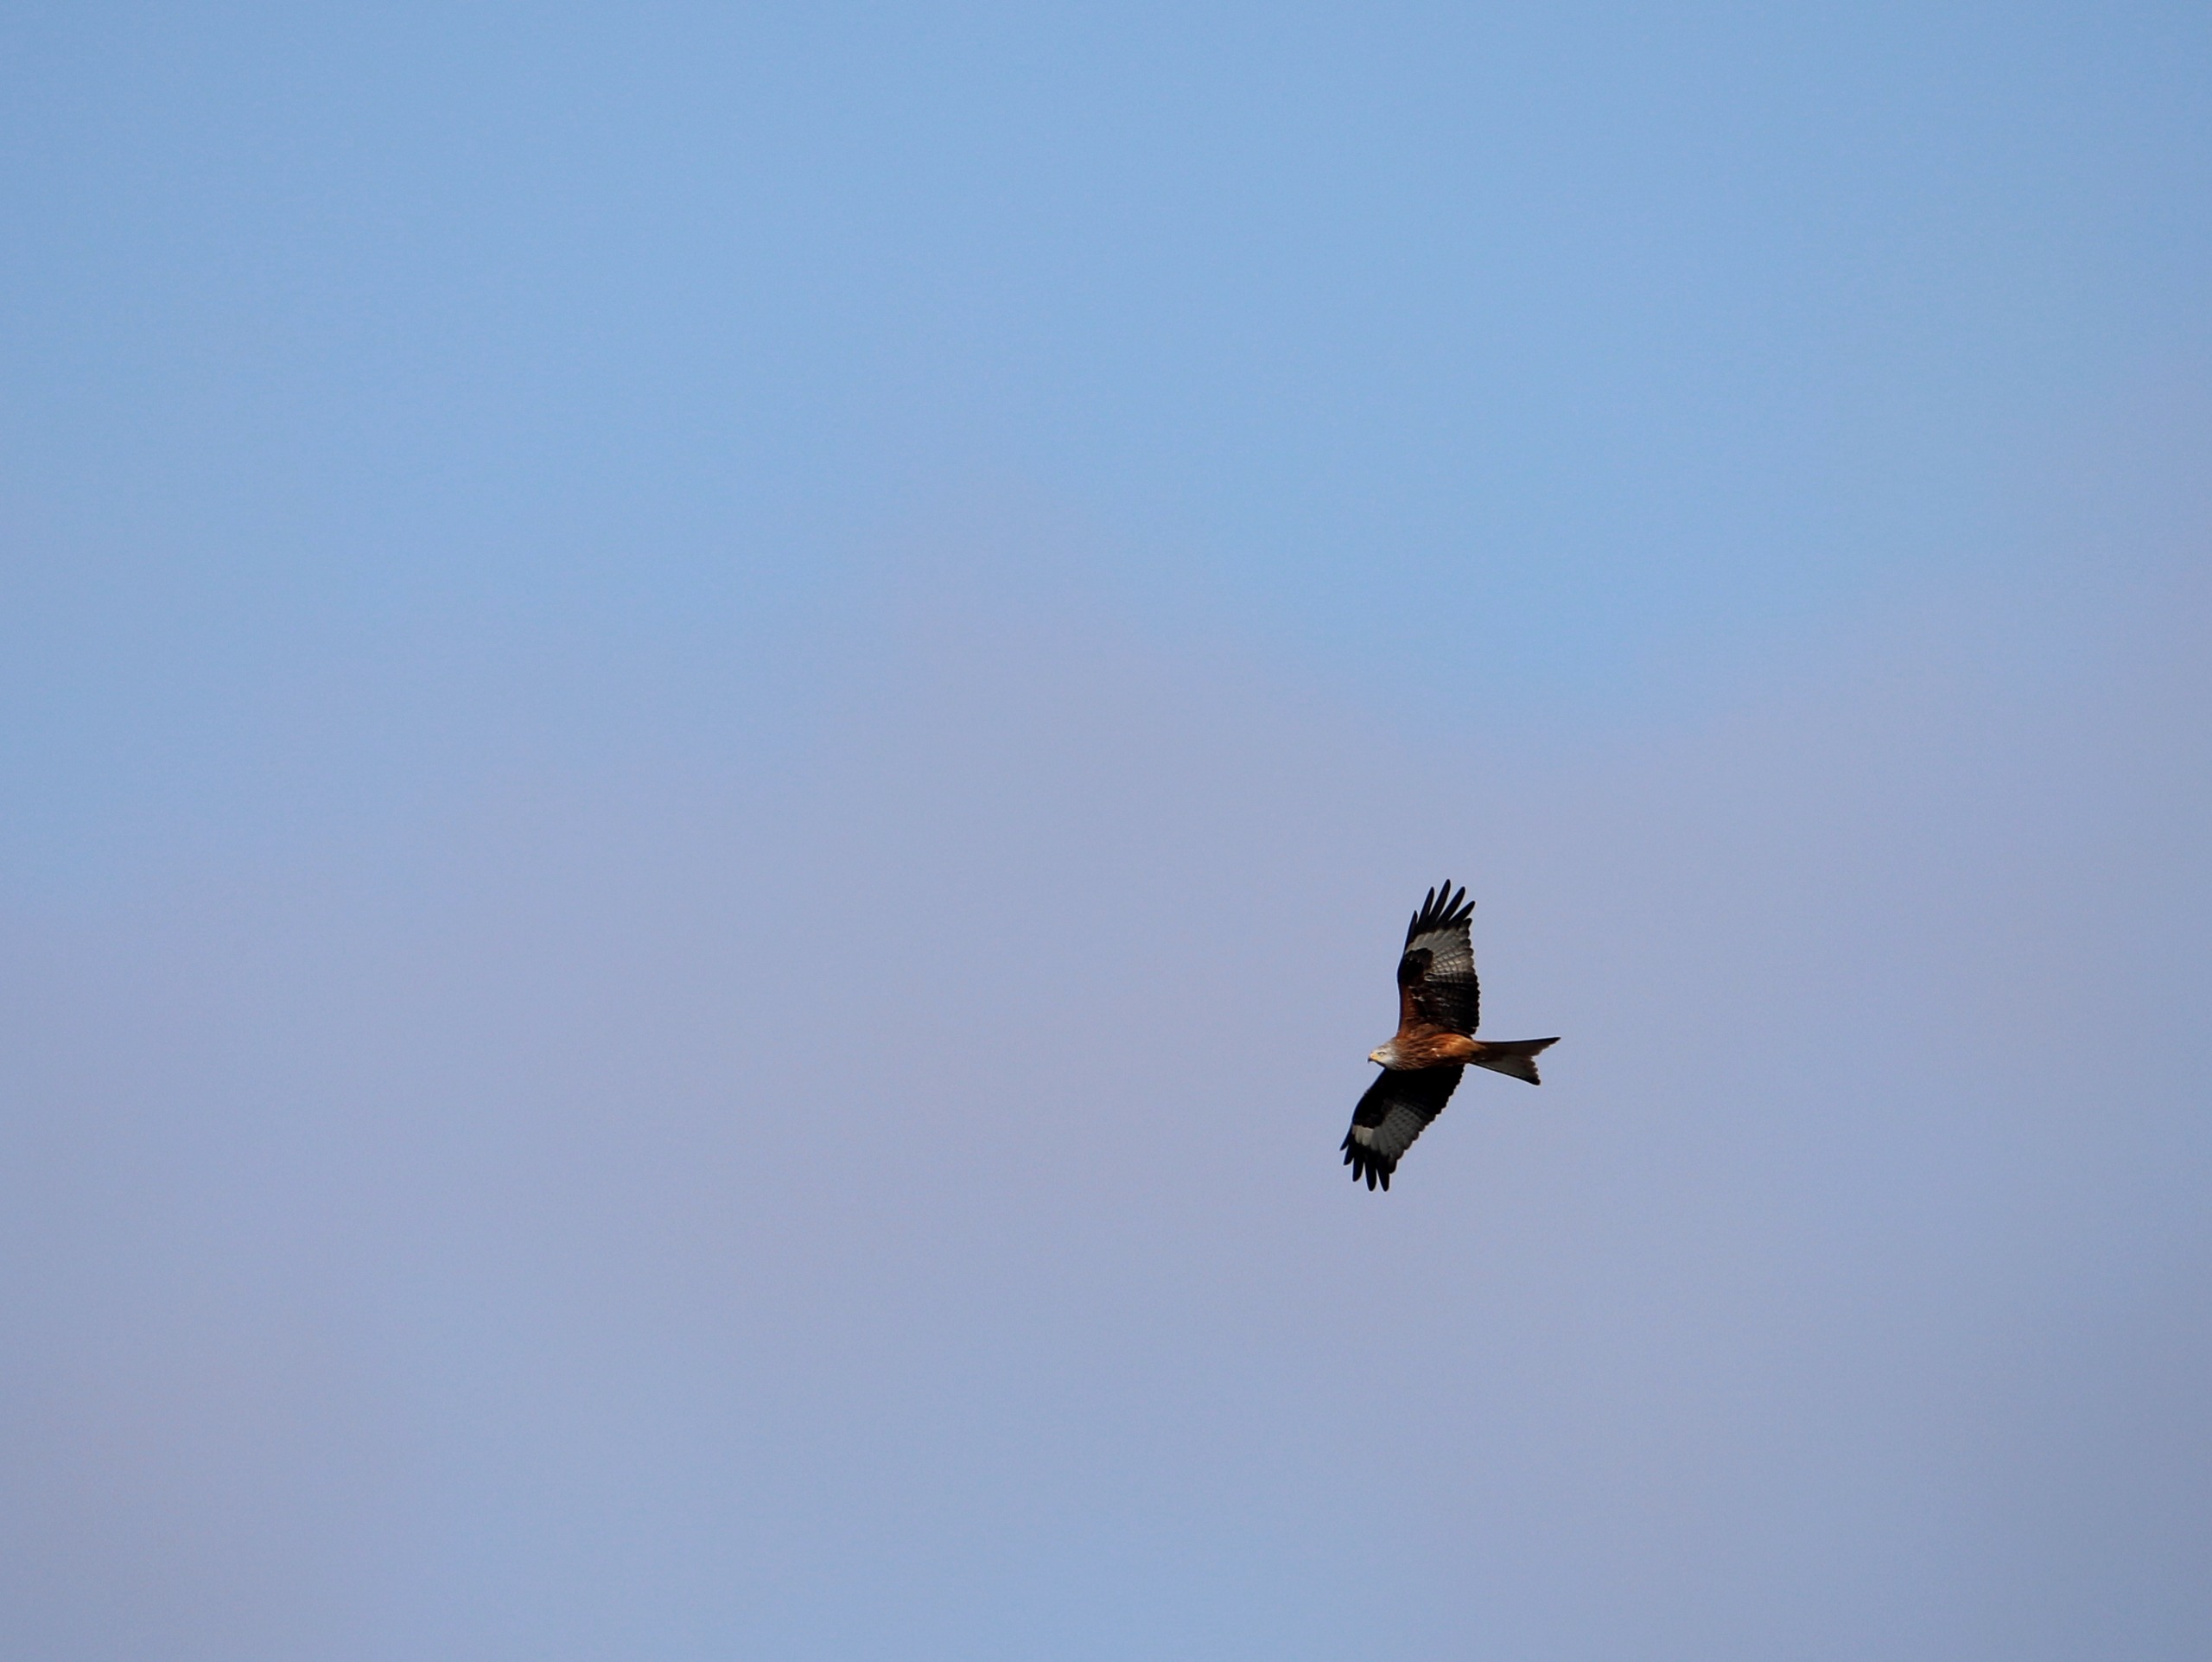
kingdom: Animalia
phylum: Chordata
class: Aves
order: Accipitriformes
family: Accipitridae
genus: Milvus
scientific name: Milvus milvus
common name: Rød glente
